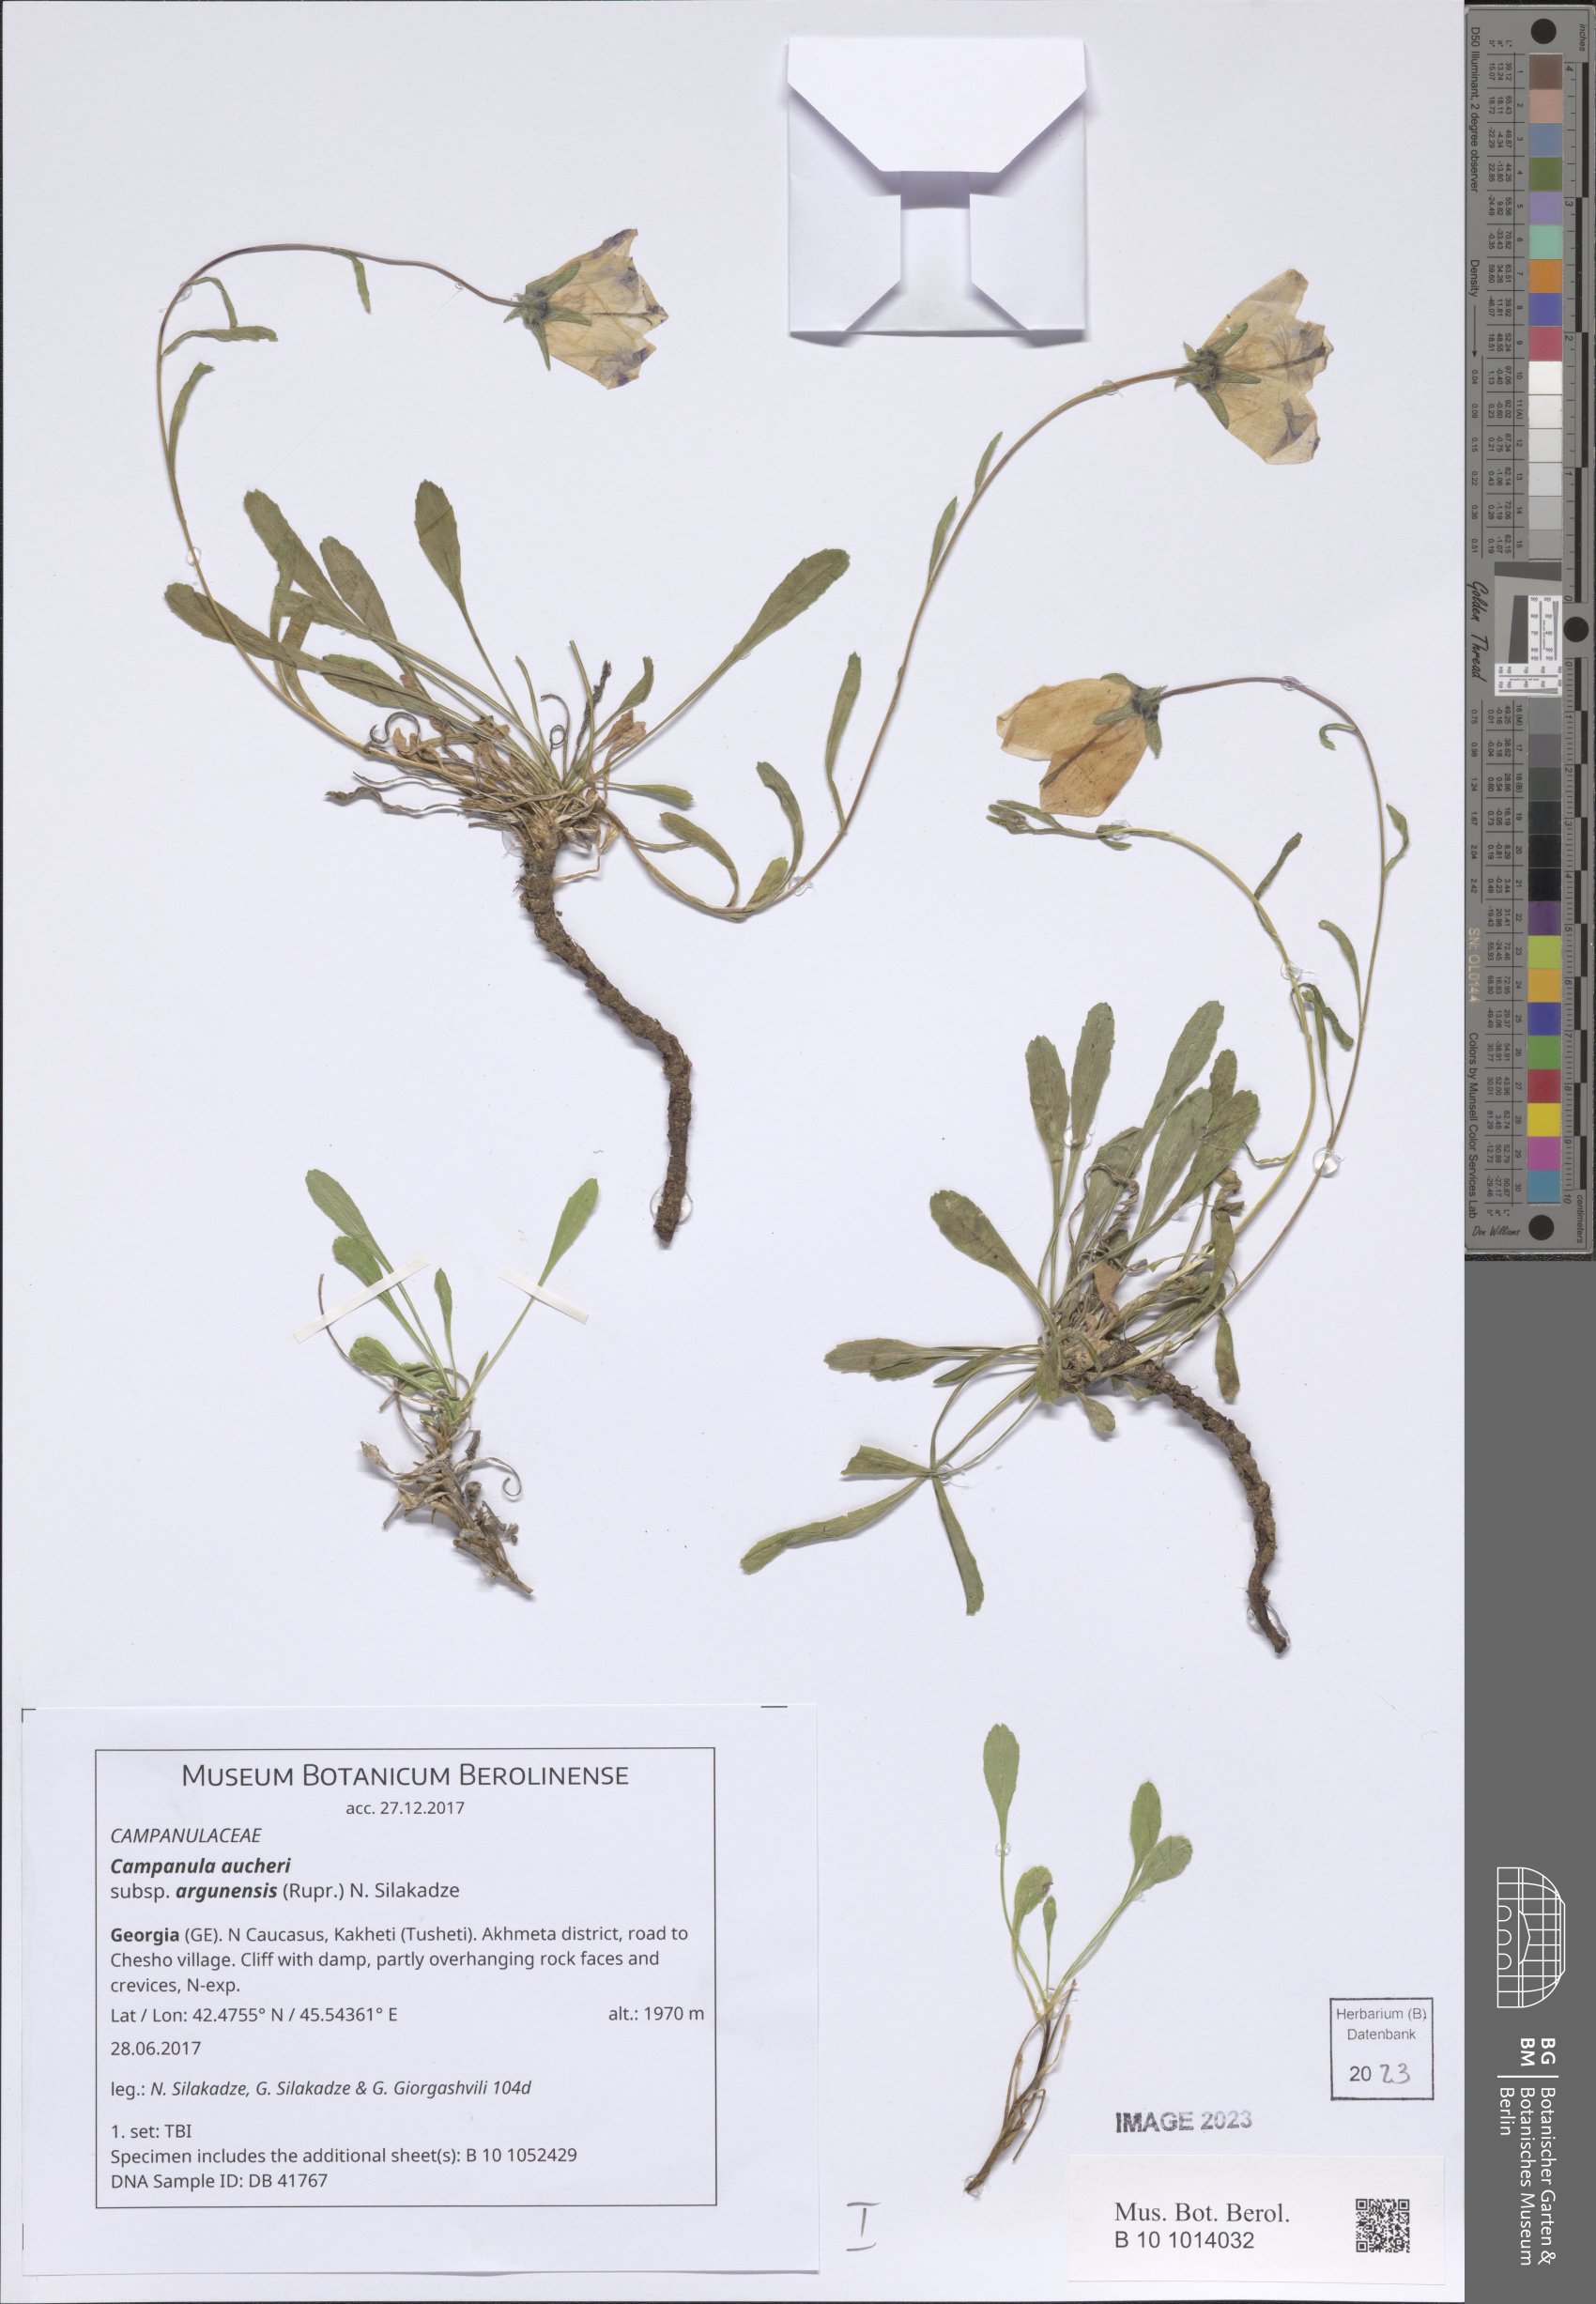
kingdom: Plantae
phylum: Tracheophyta
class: Magnoliopsida
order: Asterales
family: Campanulaceae
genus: Campanula
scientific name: Campanula saxifraga
